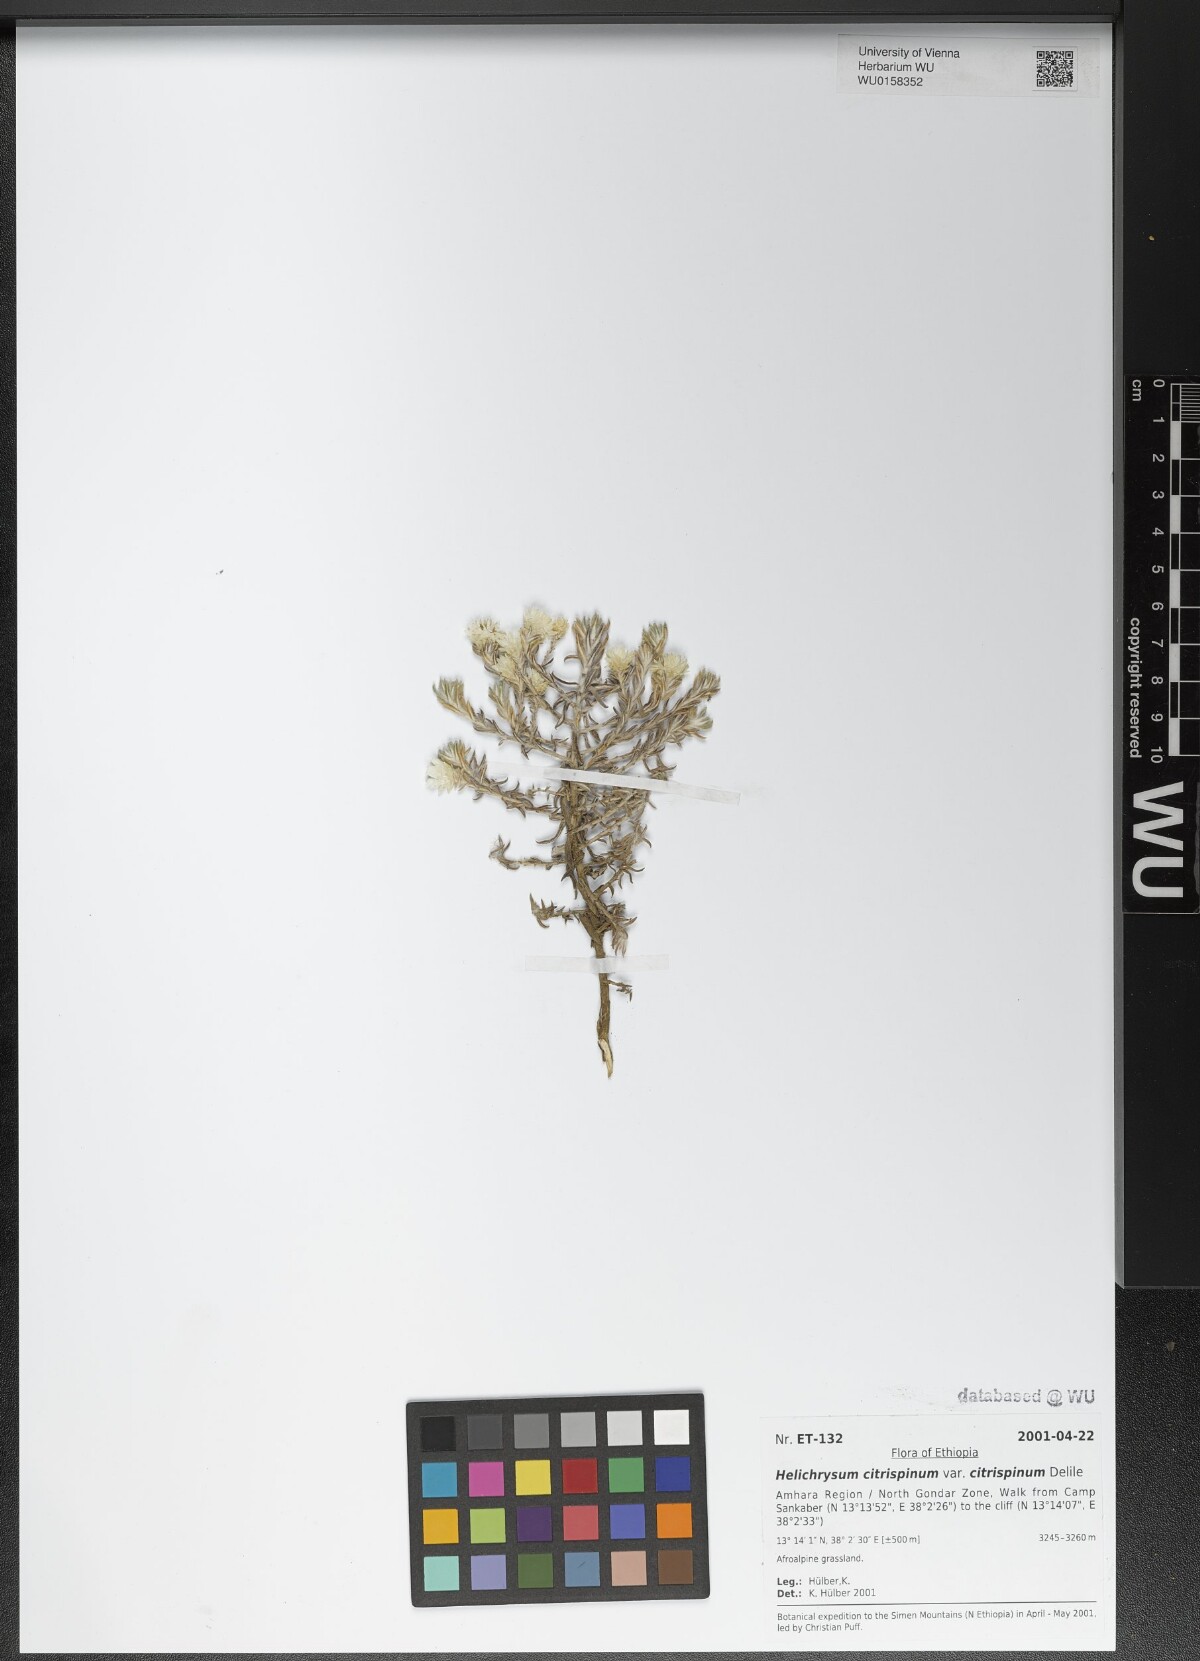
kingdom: Plantae
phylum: Tracheophyta
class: Magnoliopsida
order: Asterales
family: Asteraceae
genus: Helichrysum
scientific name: Helichrysum citrispinum
